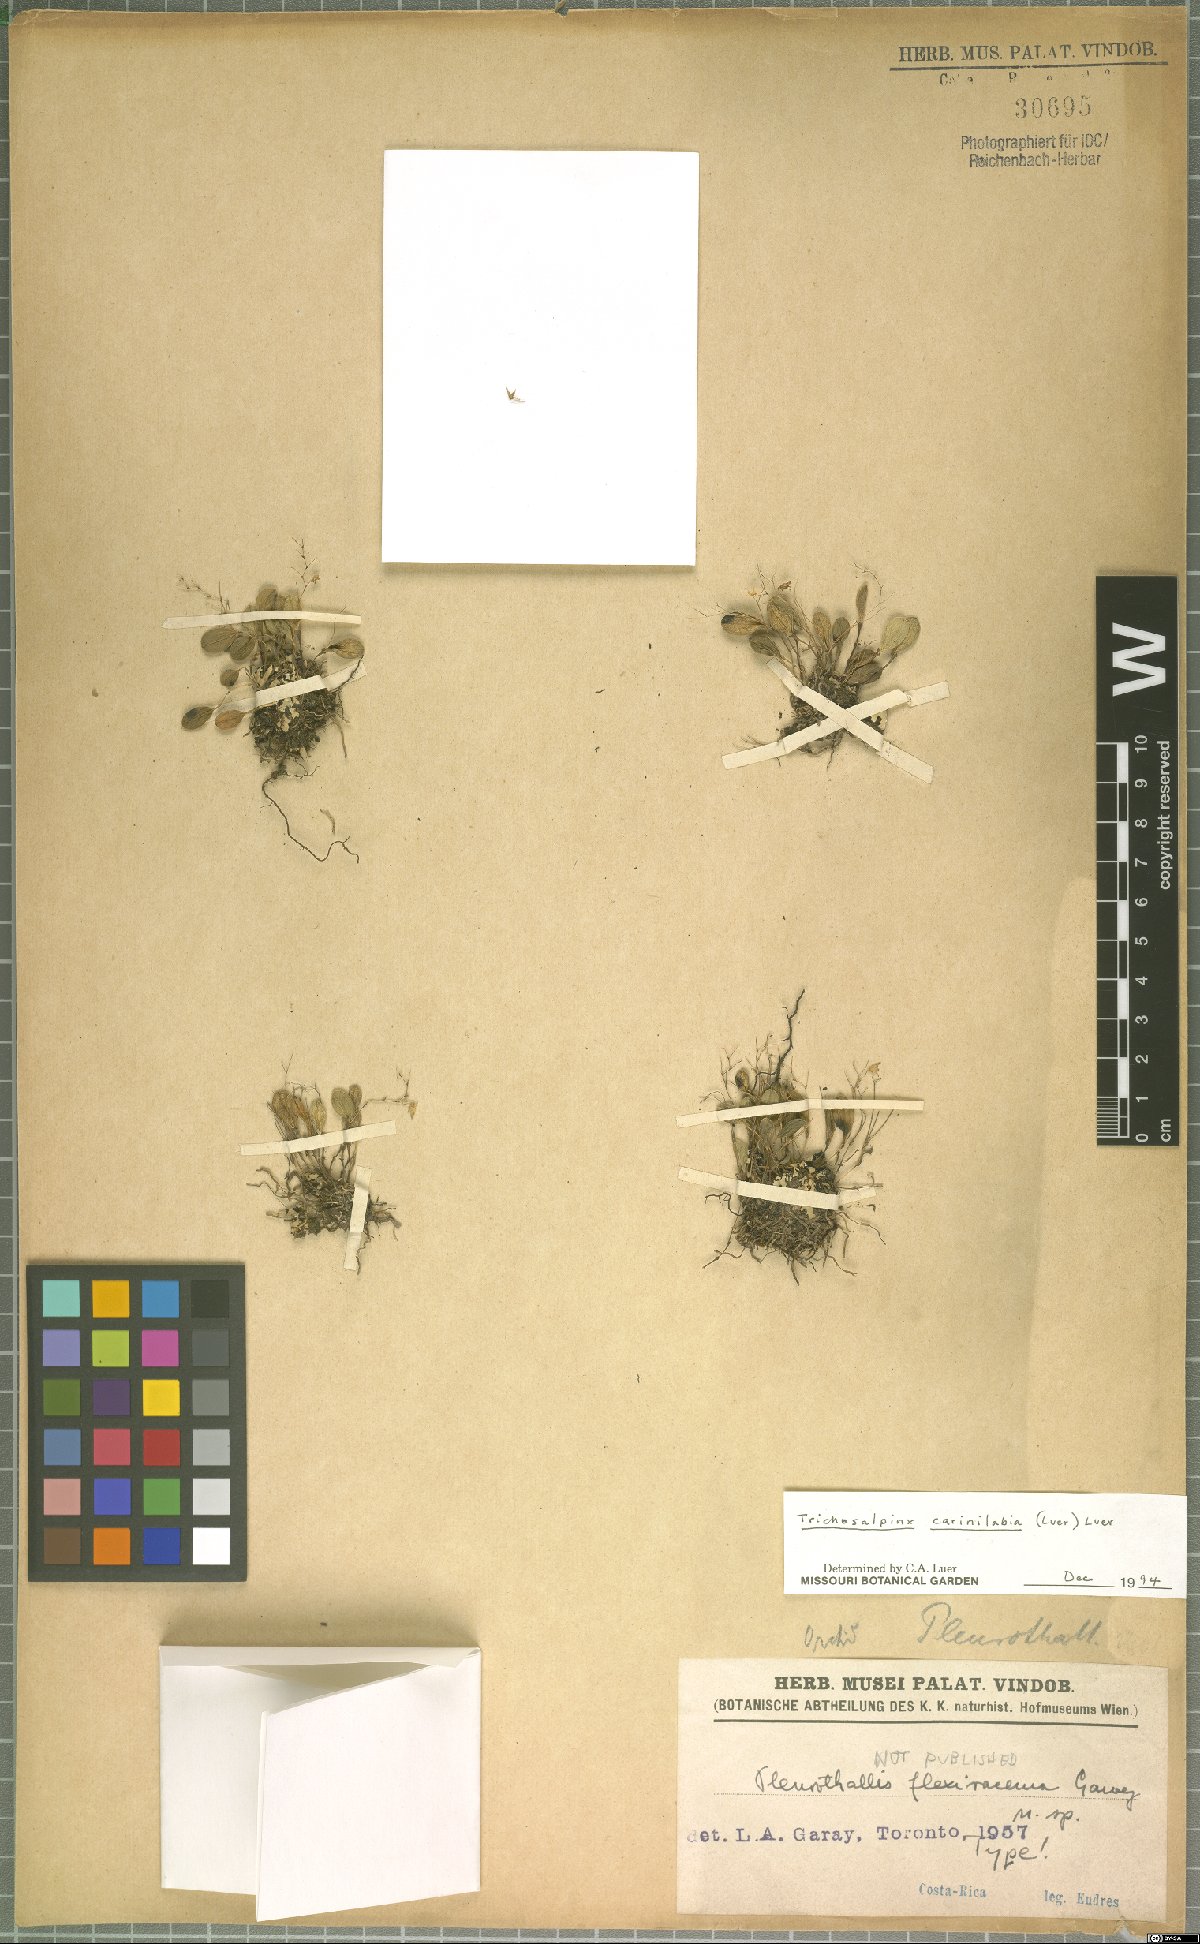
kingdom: Plantae
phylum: Tracheophyta
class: Liliopsida
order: Asparagales
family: Orchidaceae
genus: Trichosalpinx
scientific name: Trichosalpinx carinilabia
